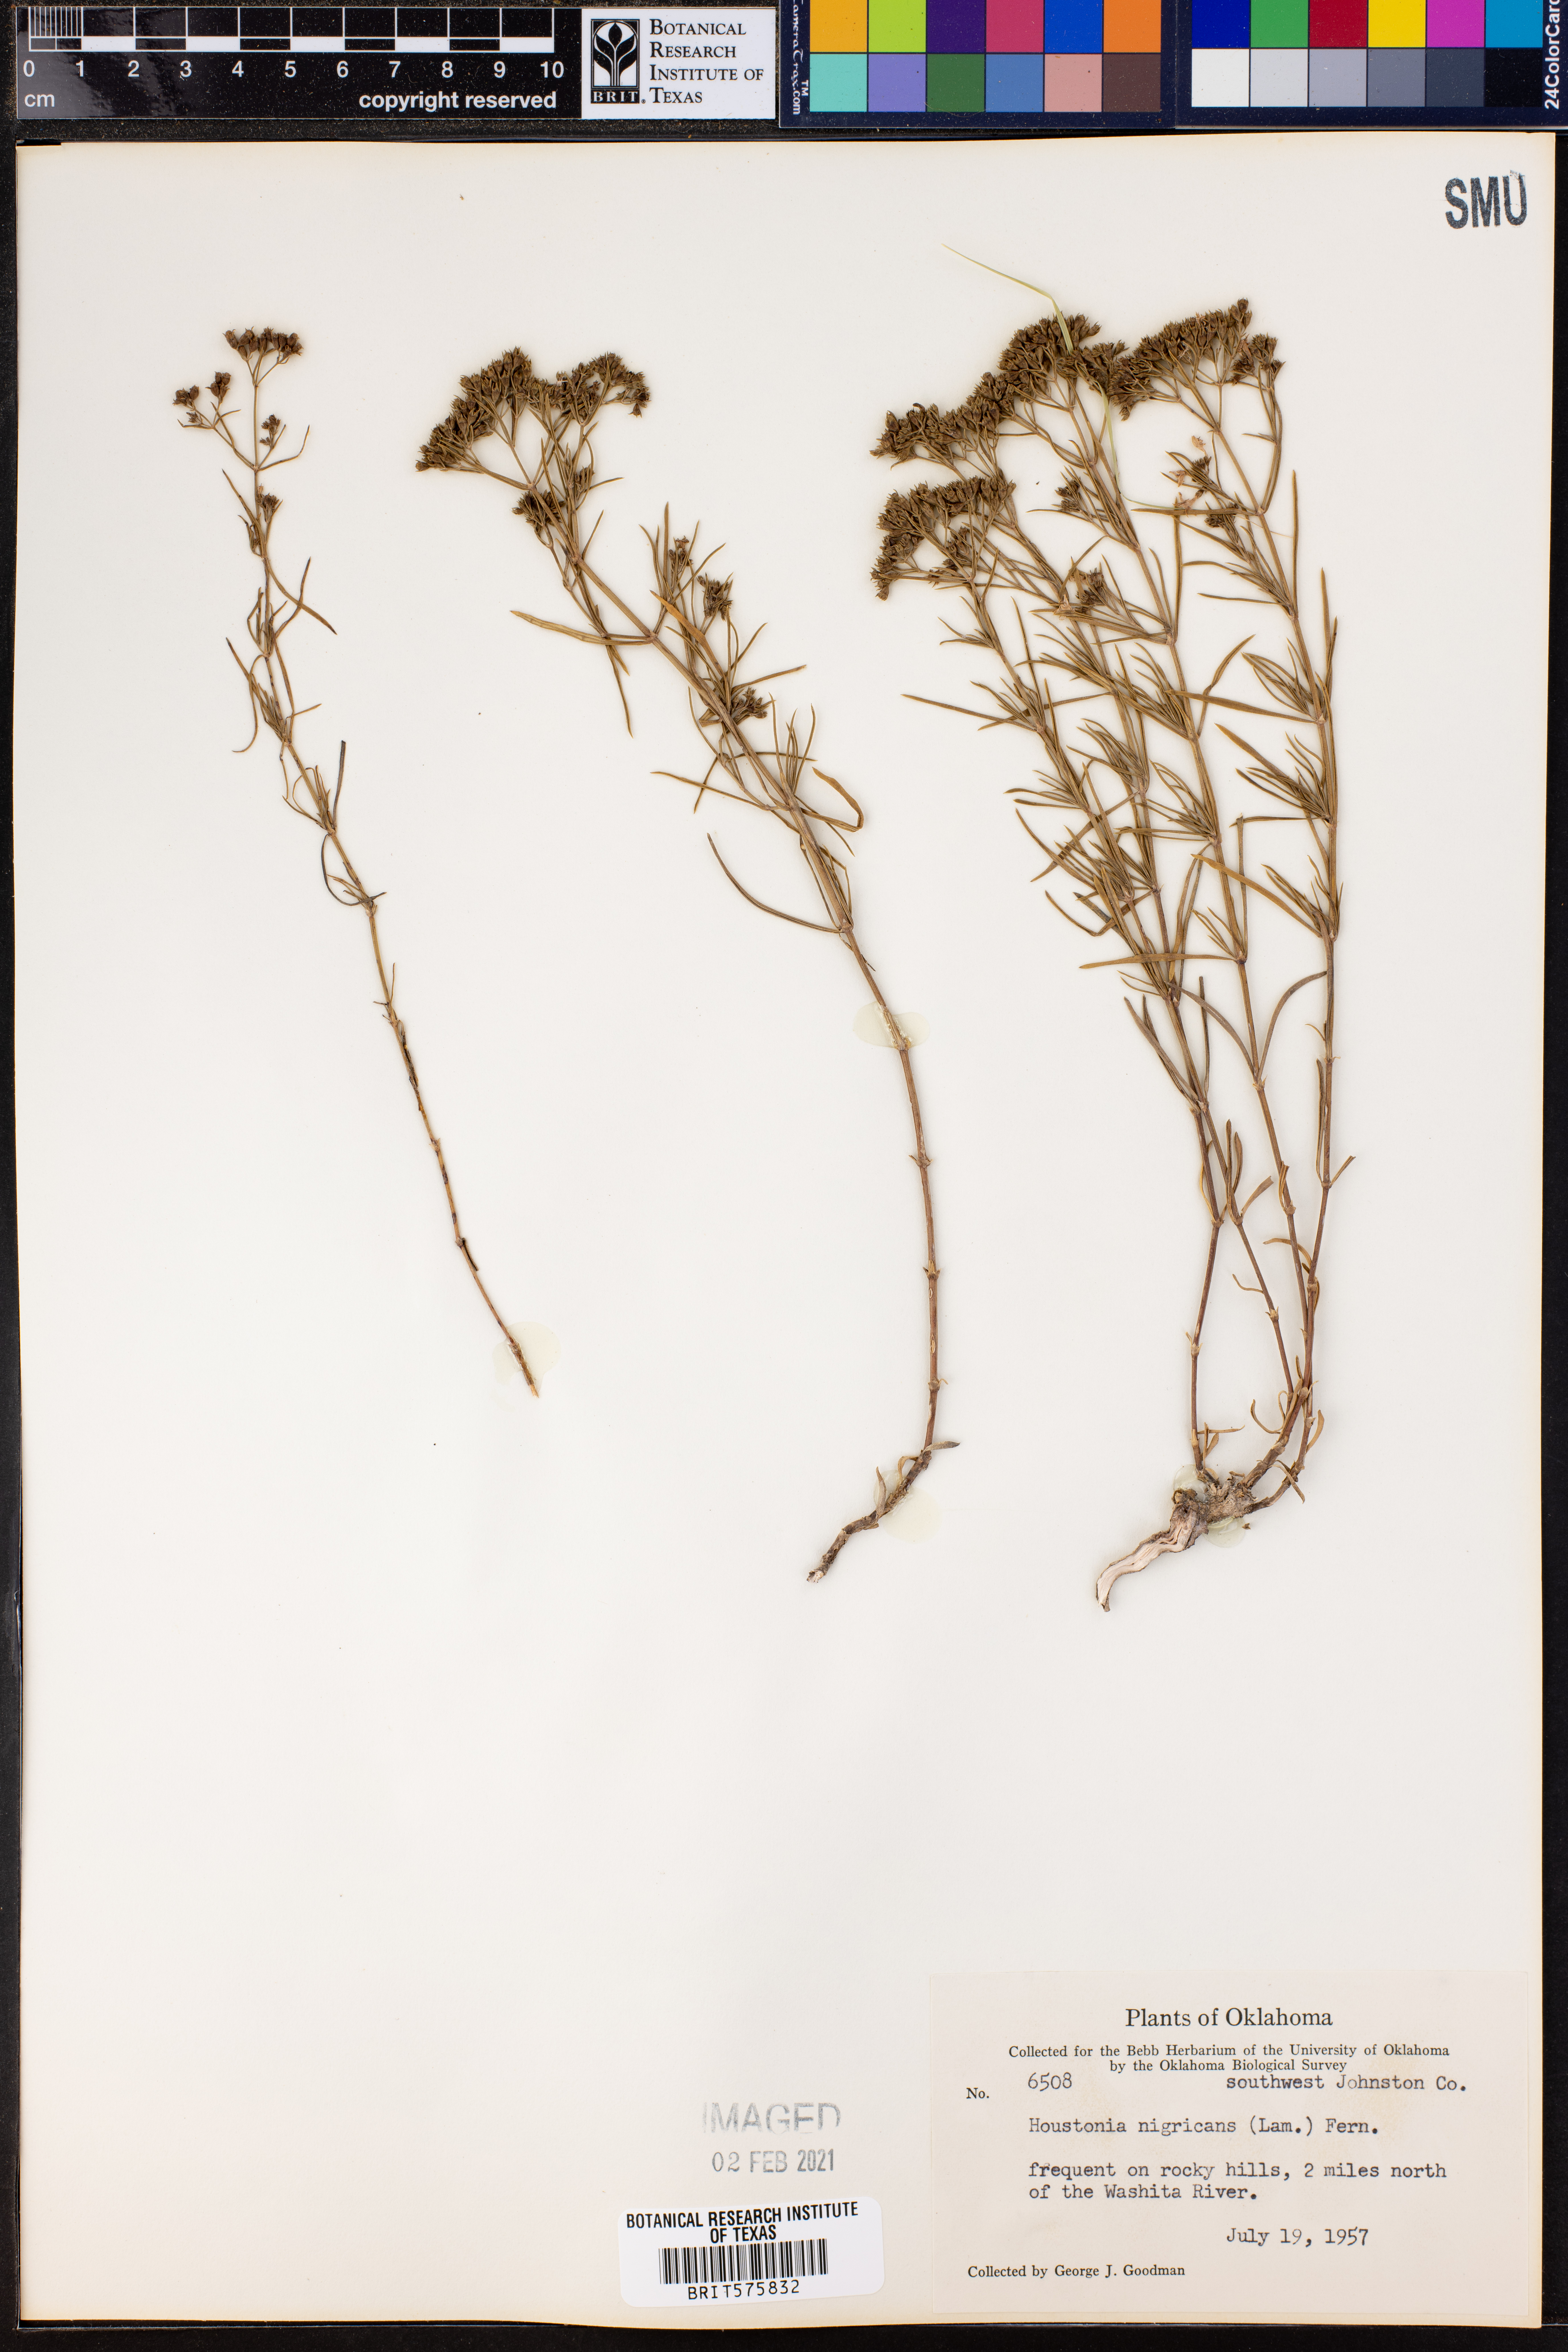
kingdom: Plantae
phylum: Tracheophyta
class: Magnoliopsida
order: Gentianales
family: Rubiaceae
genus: Stenaria
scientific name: Stenaria nigricans
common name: Diamondflowers
